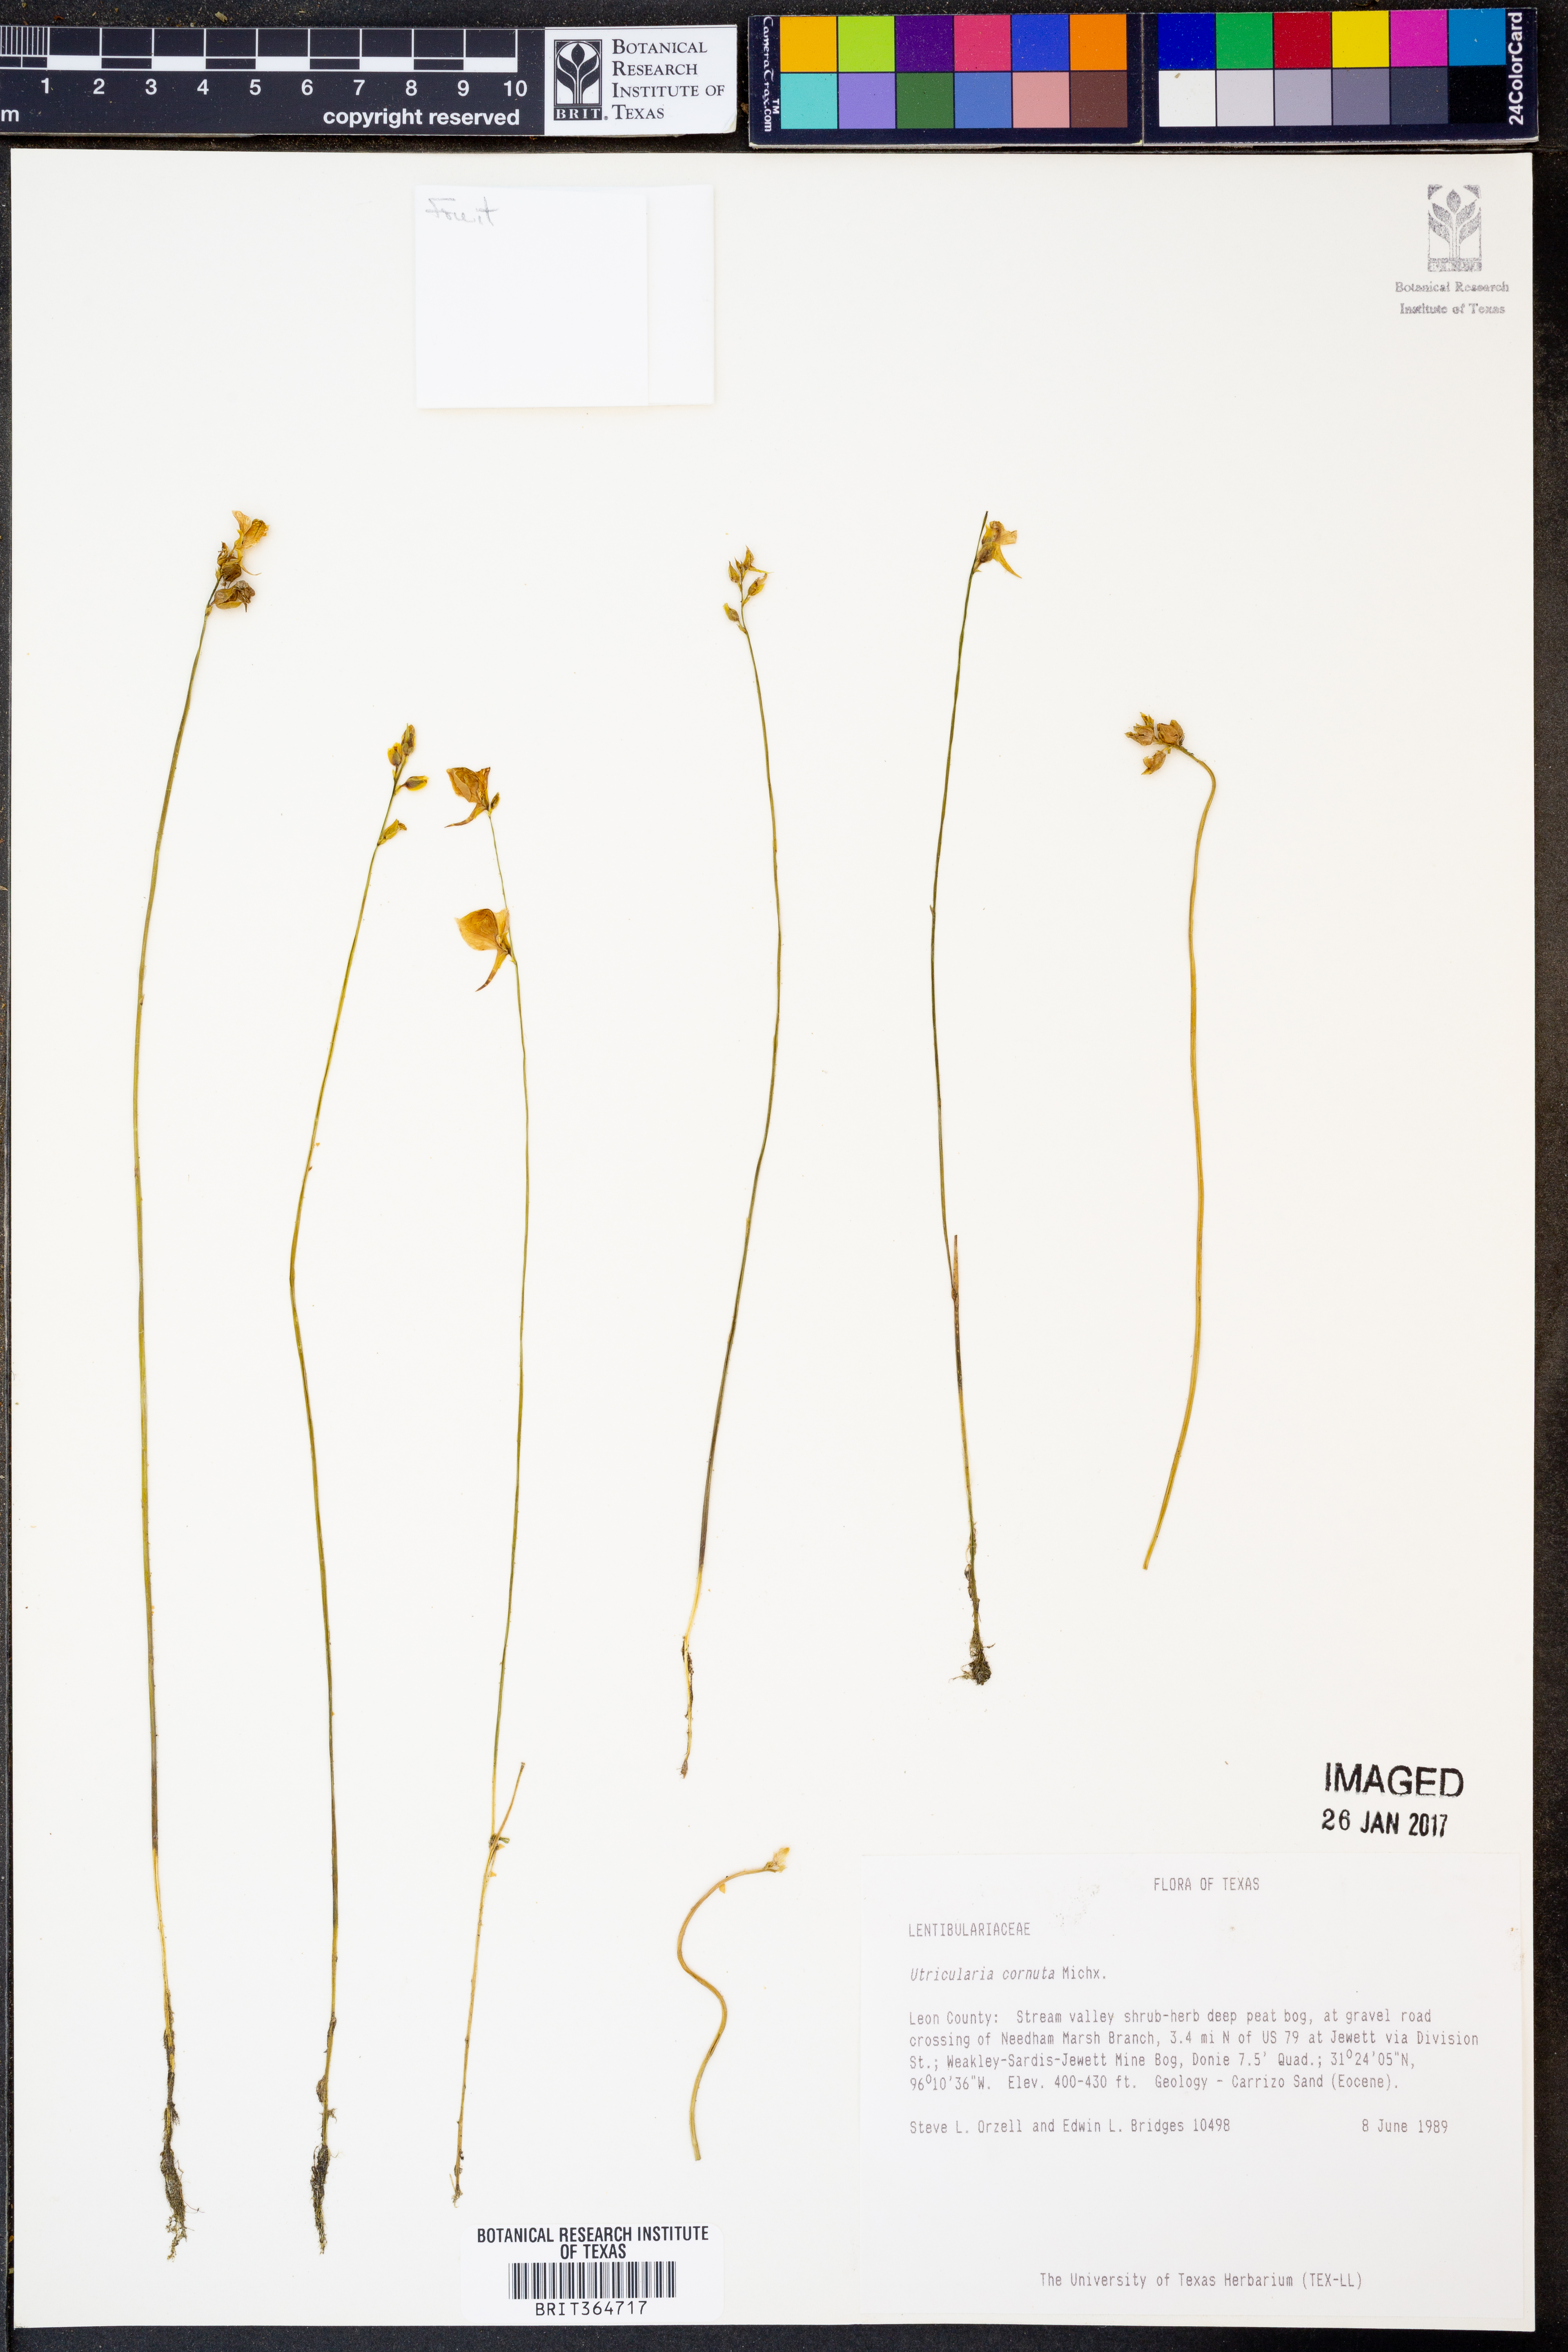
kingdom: Plantae
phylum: Tracheophyta
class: Magnoliopsida
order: Lamiales
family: Lentibulariaceae
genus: Utricularia
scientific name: Utricularia cornuta
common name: Horned bladderwort
